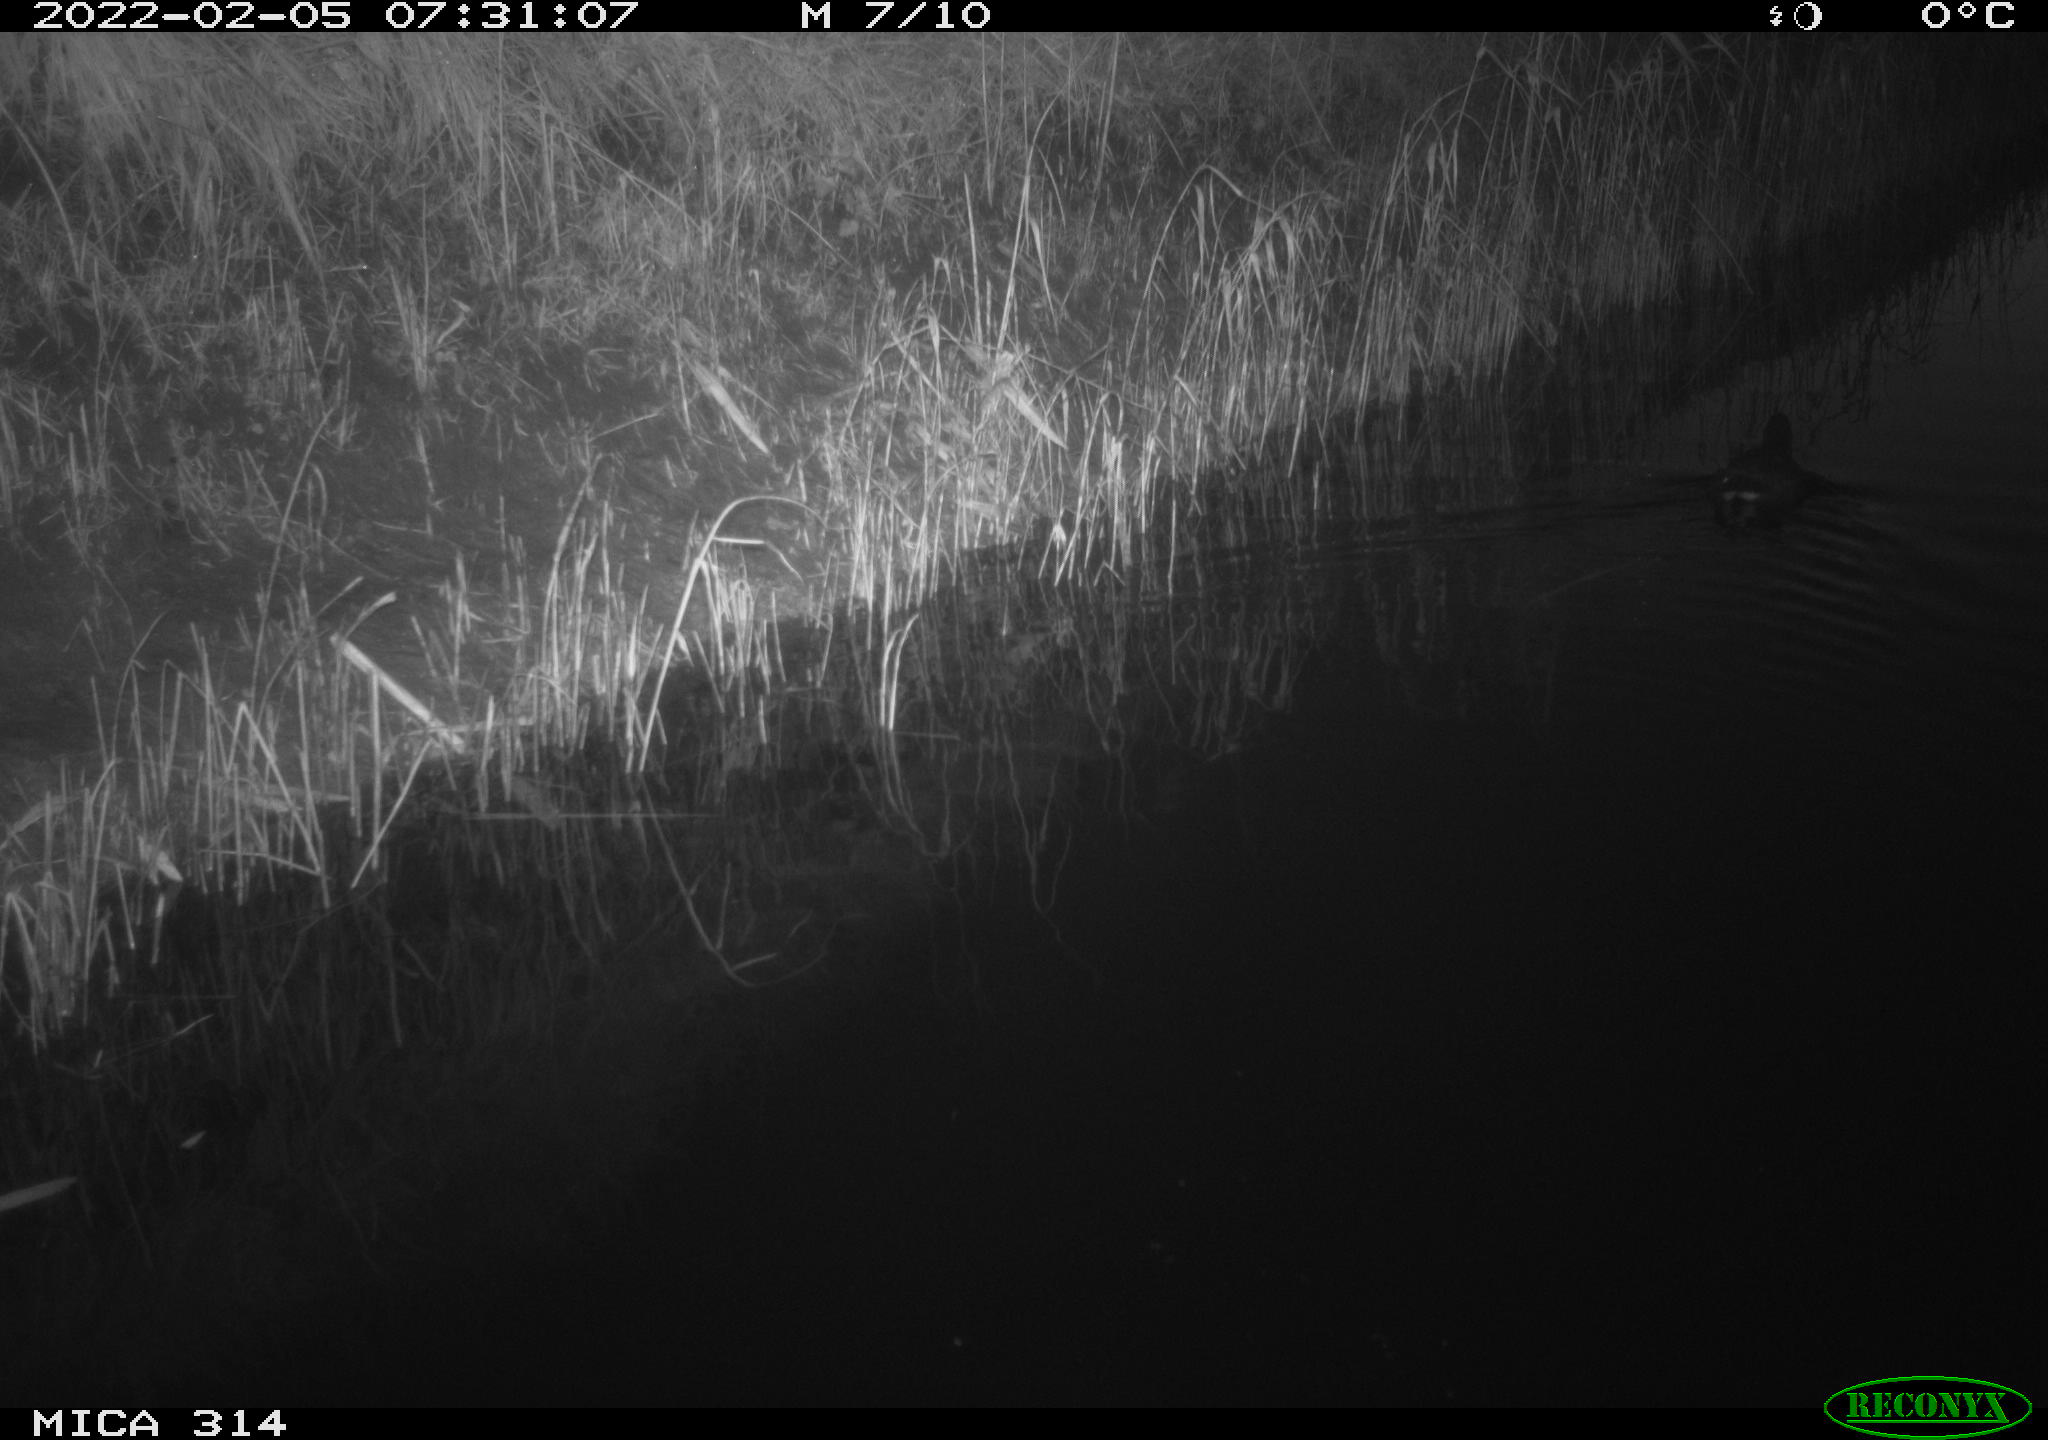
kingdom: Animalia
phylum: Chordata
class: Aves
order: Gruiformes
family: Rallidae
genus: Gallinula
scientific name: Gallinula chloropus
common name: Common moorhen
